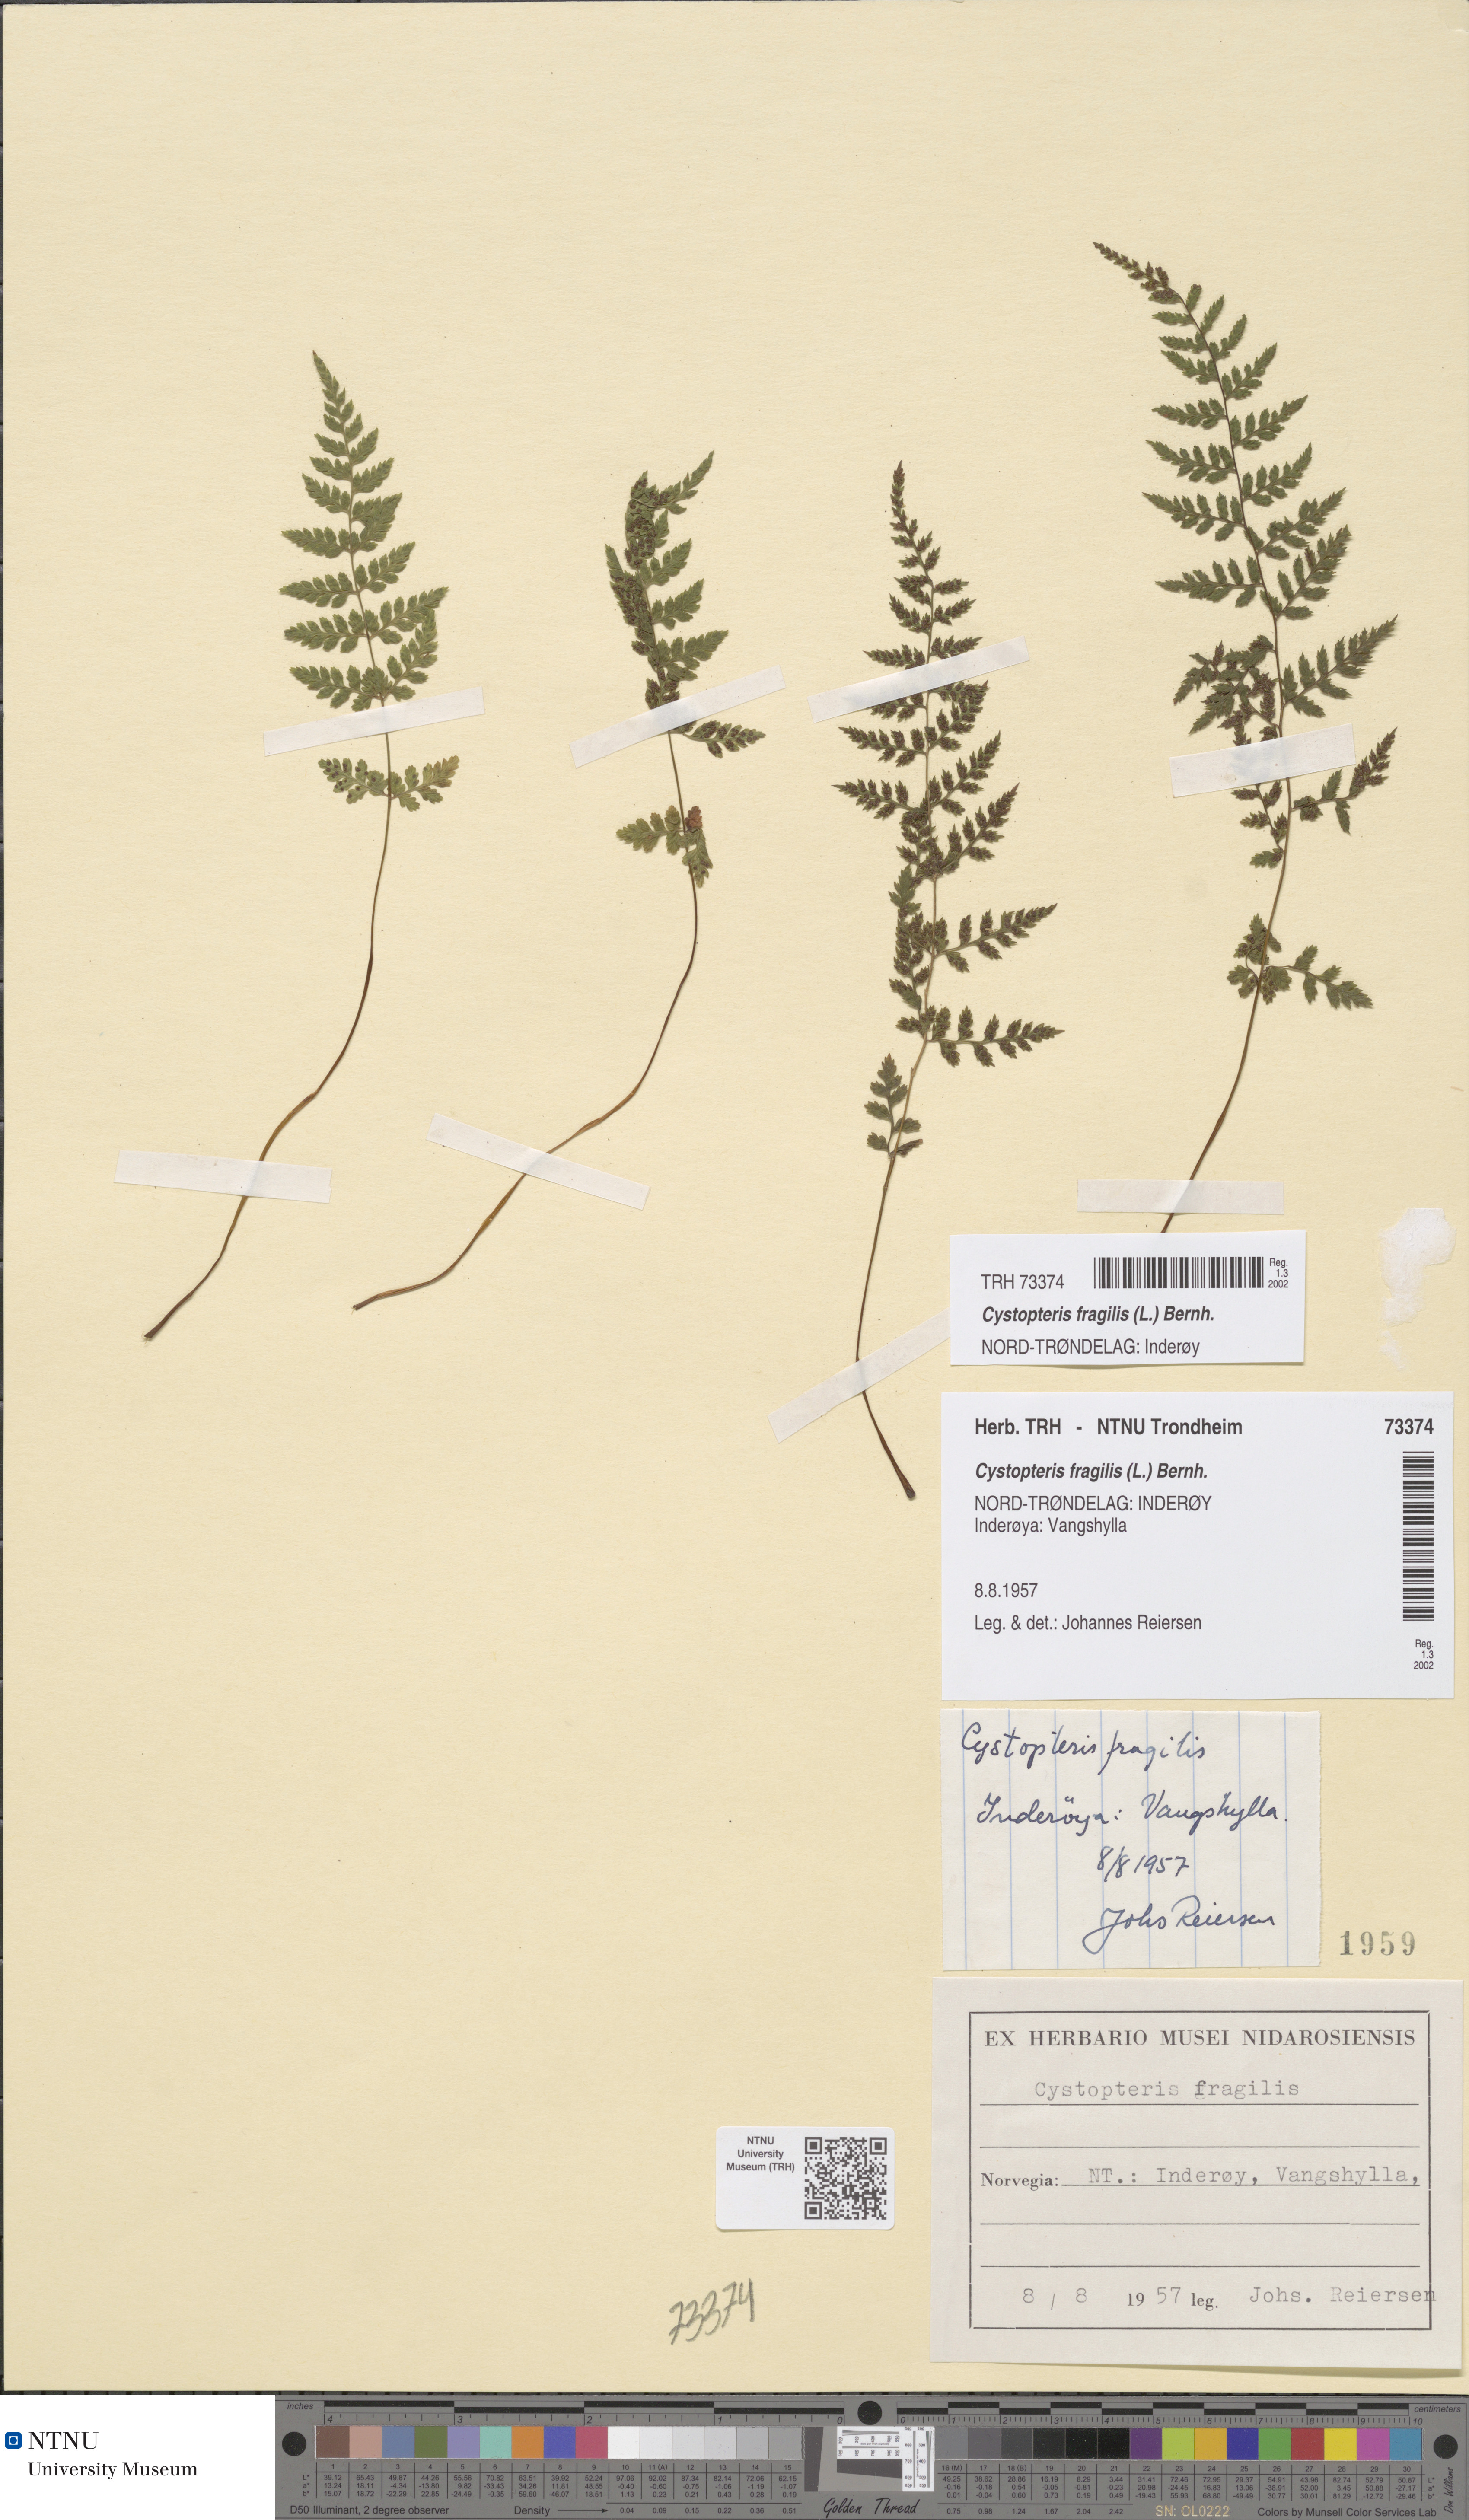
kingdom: Plantae
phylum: Tracheophyta
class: Polypodiopsida
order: Polypodiales
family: Cystopteridaceae
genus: Cystopteris
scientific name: Cystopteris fragilis
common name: Brittle bladder fern
